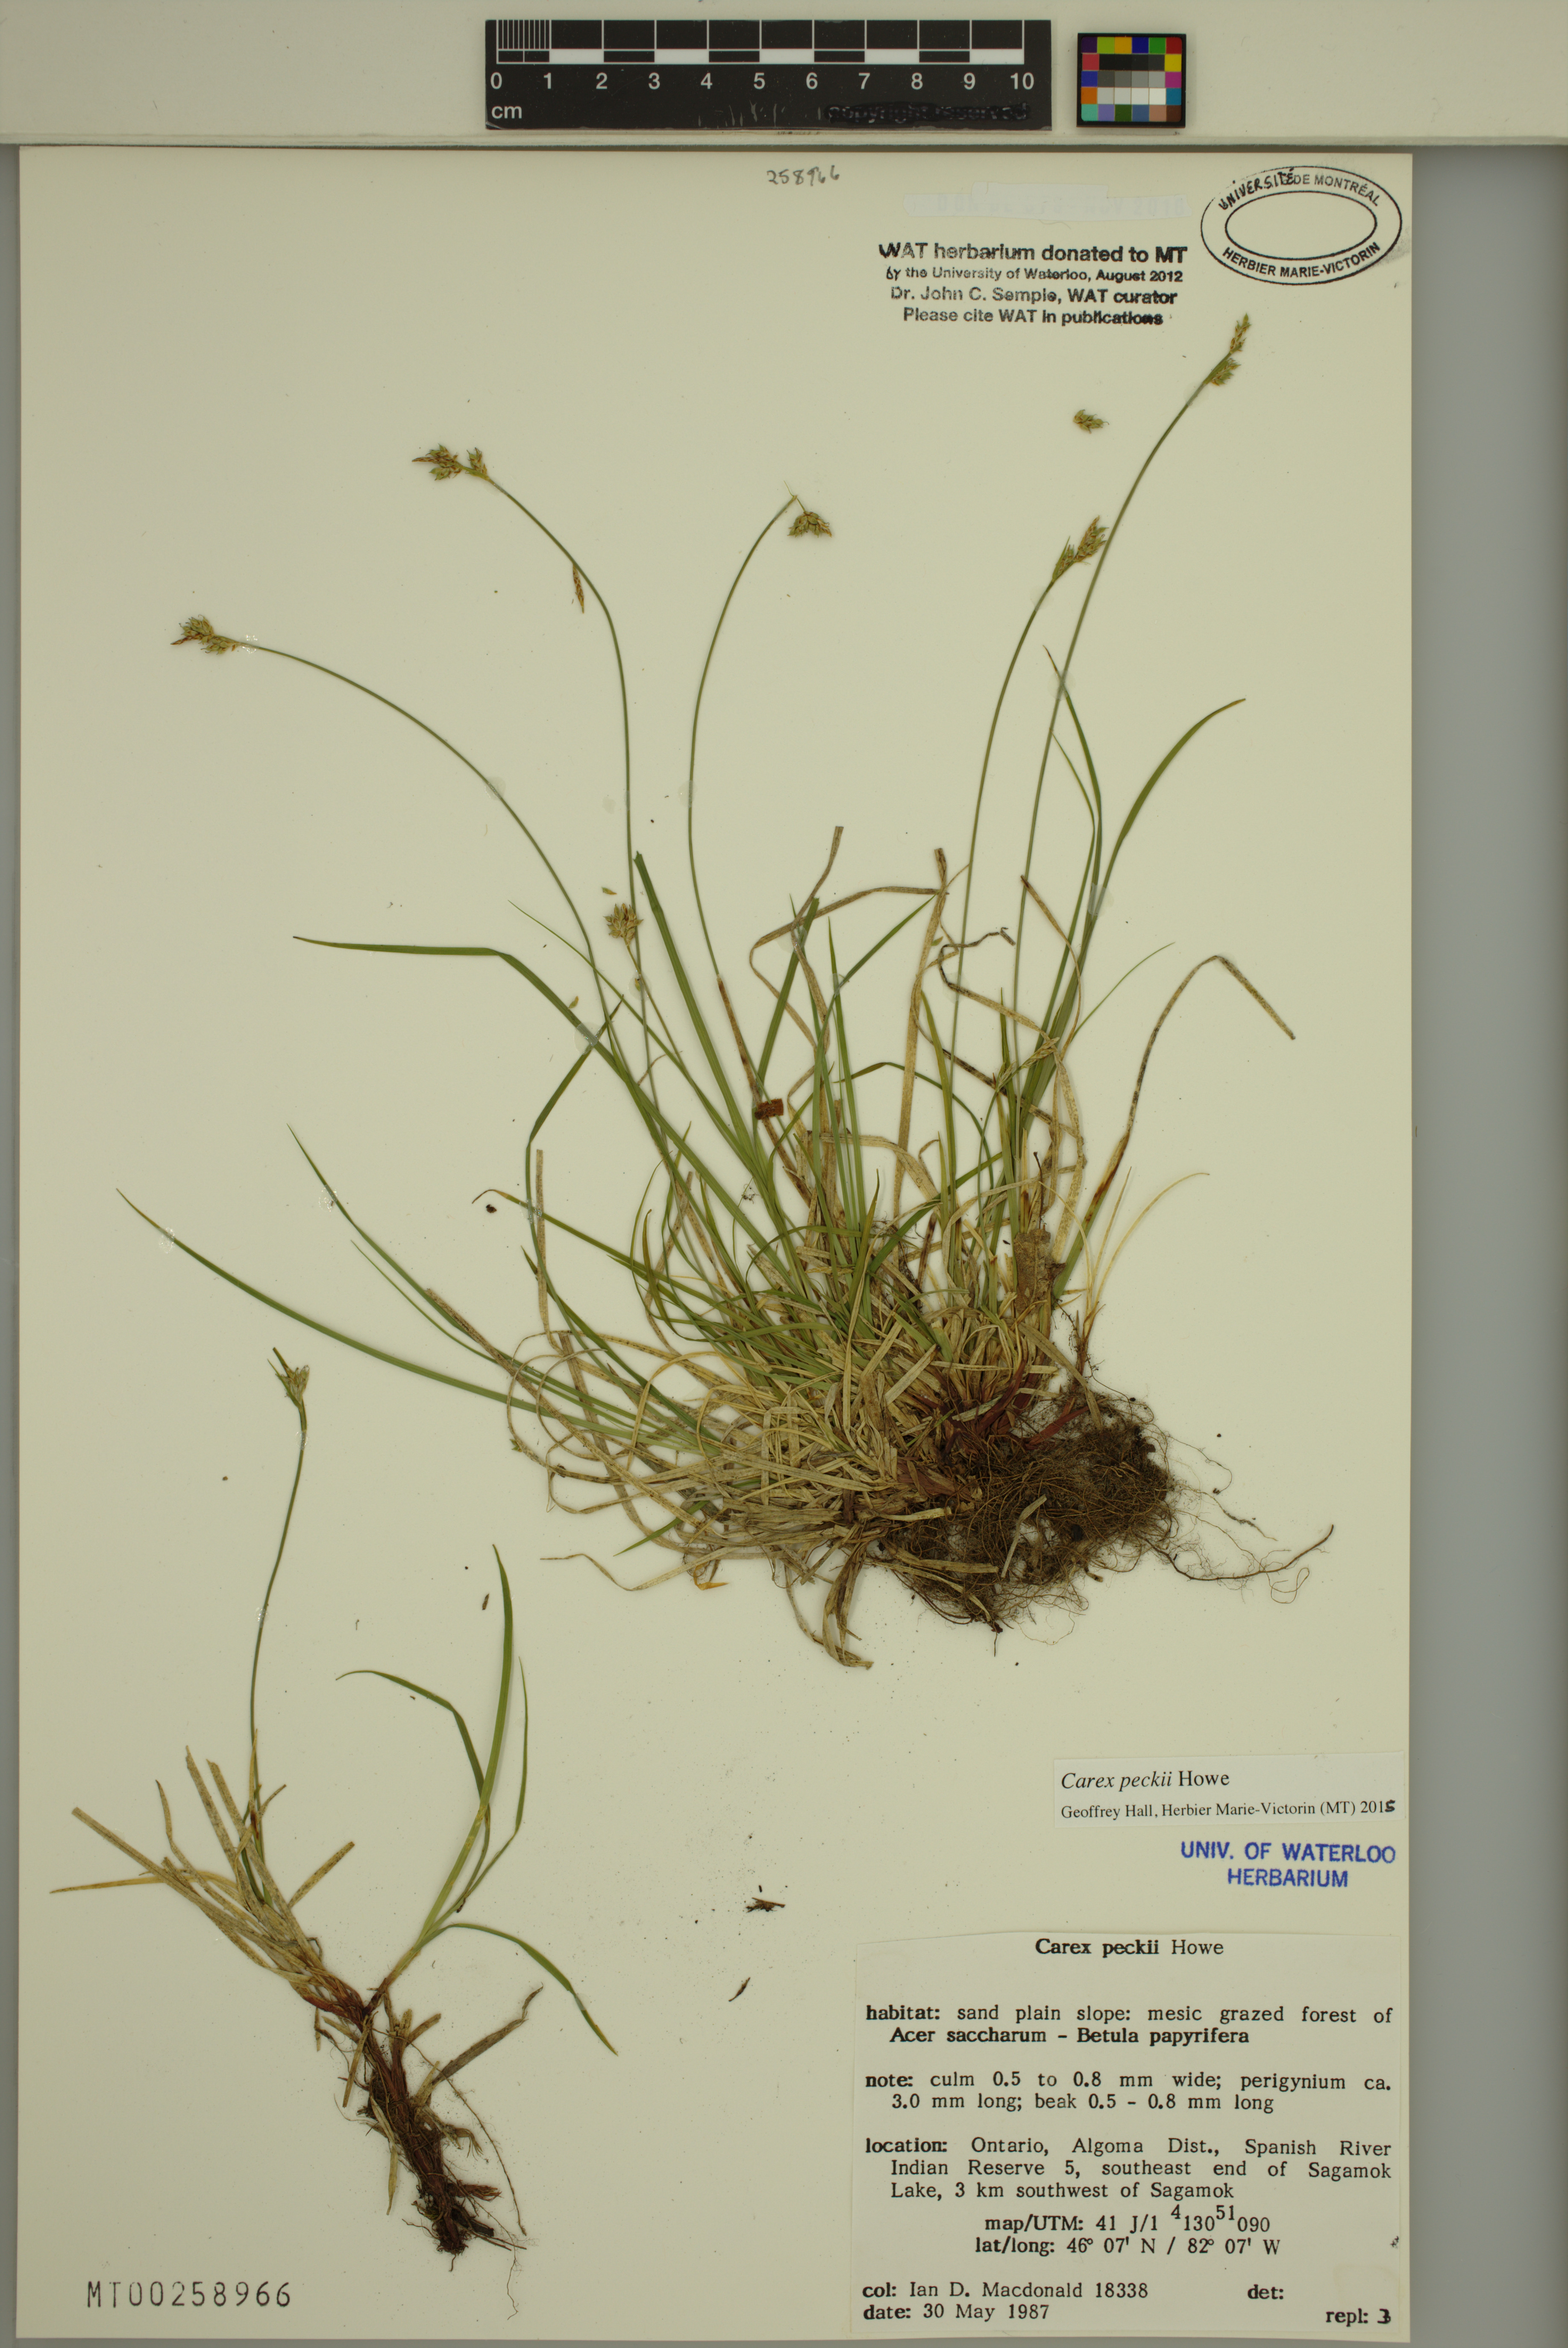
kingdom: Plantae
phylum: Tracheophyta
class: Liliopsida
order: Poales
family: Cyperaceae
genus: Carex
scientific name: Carex peckii
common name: Peck's oak sedge
